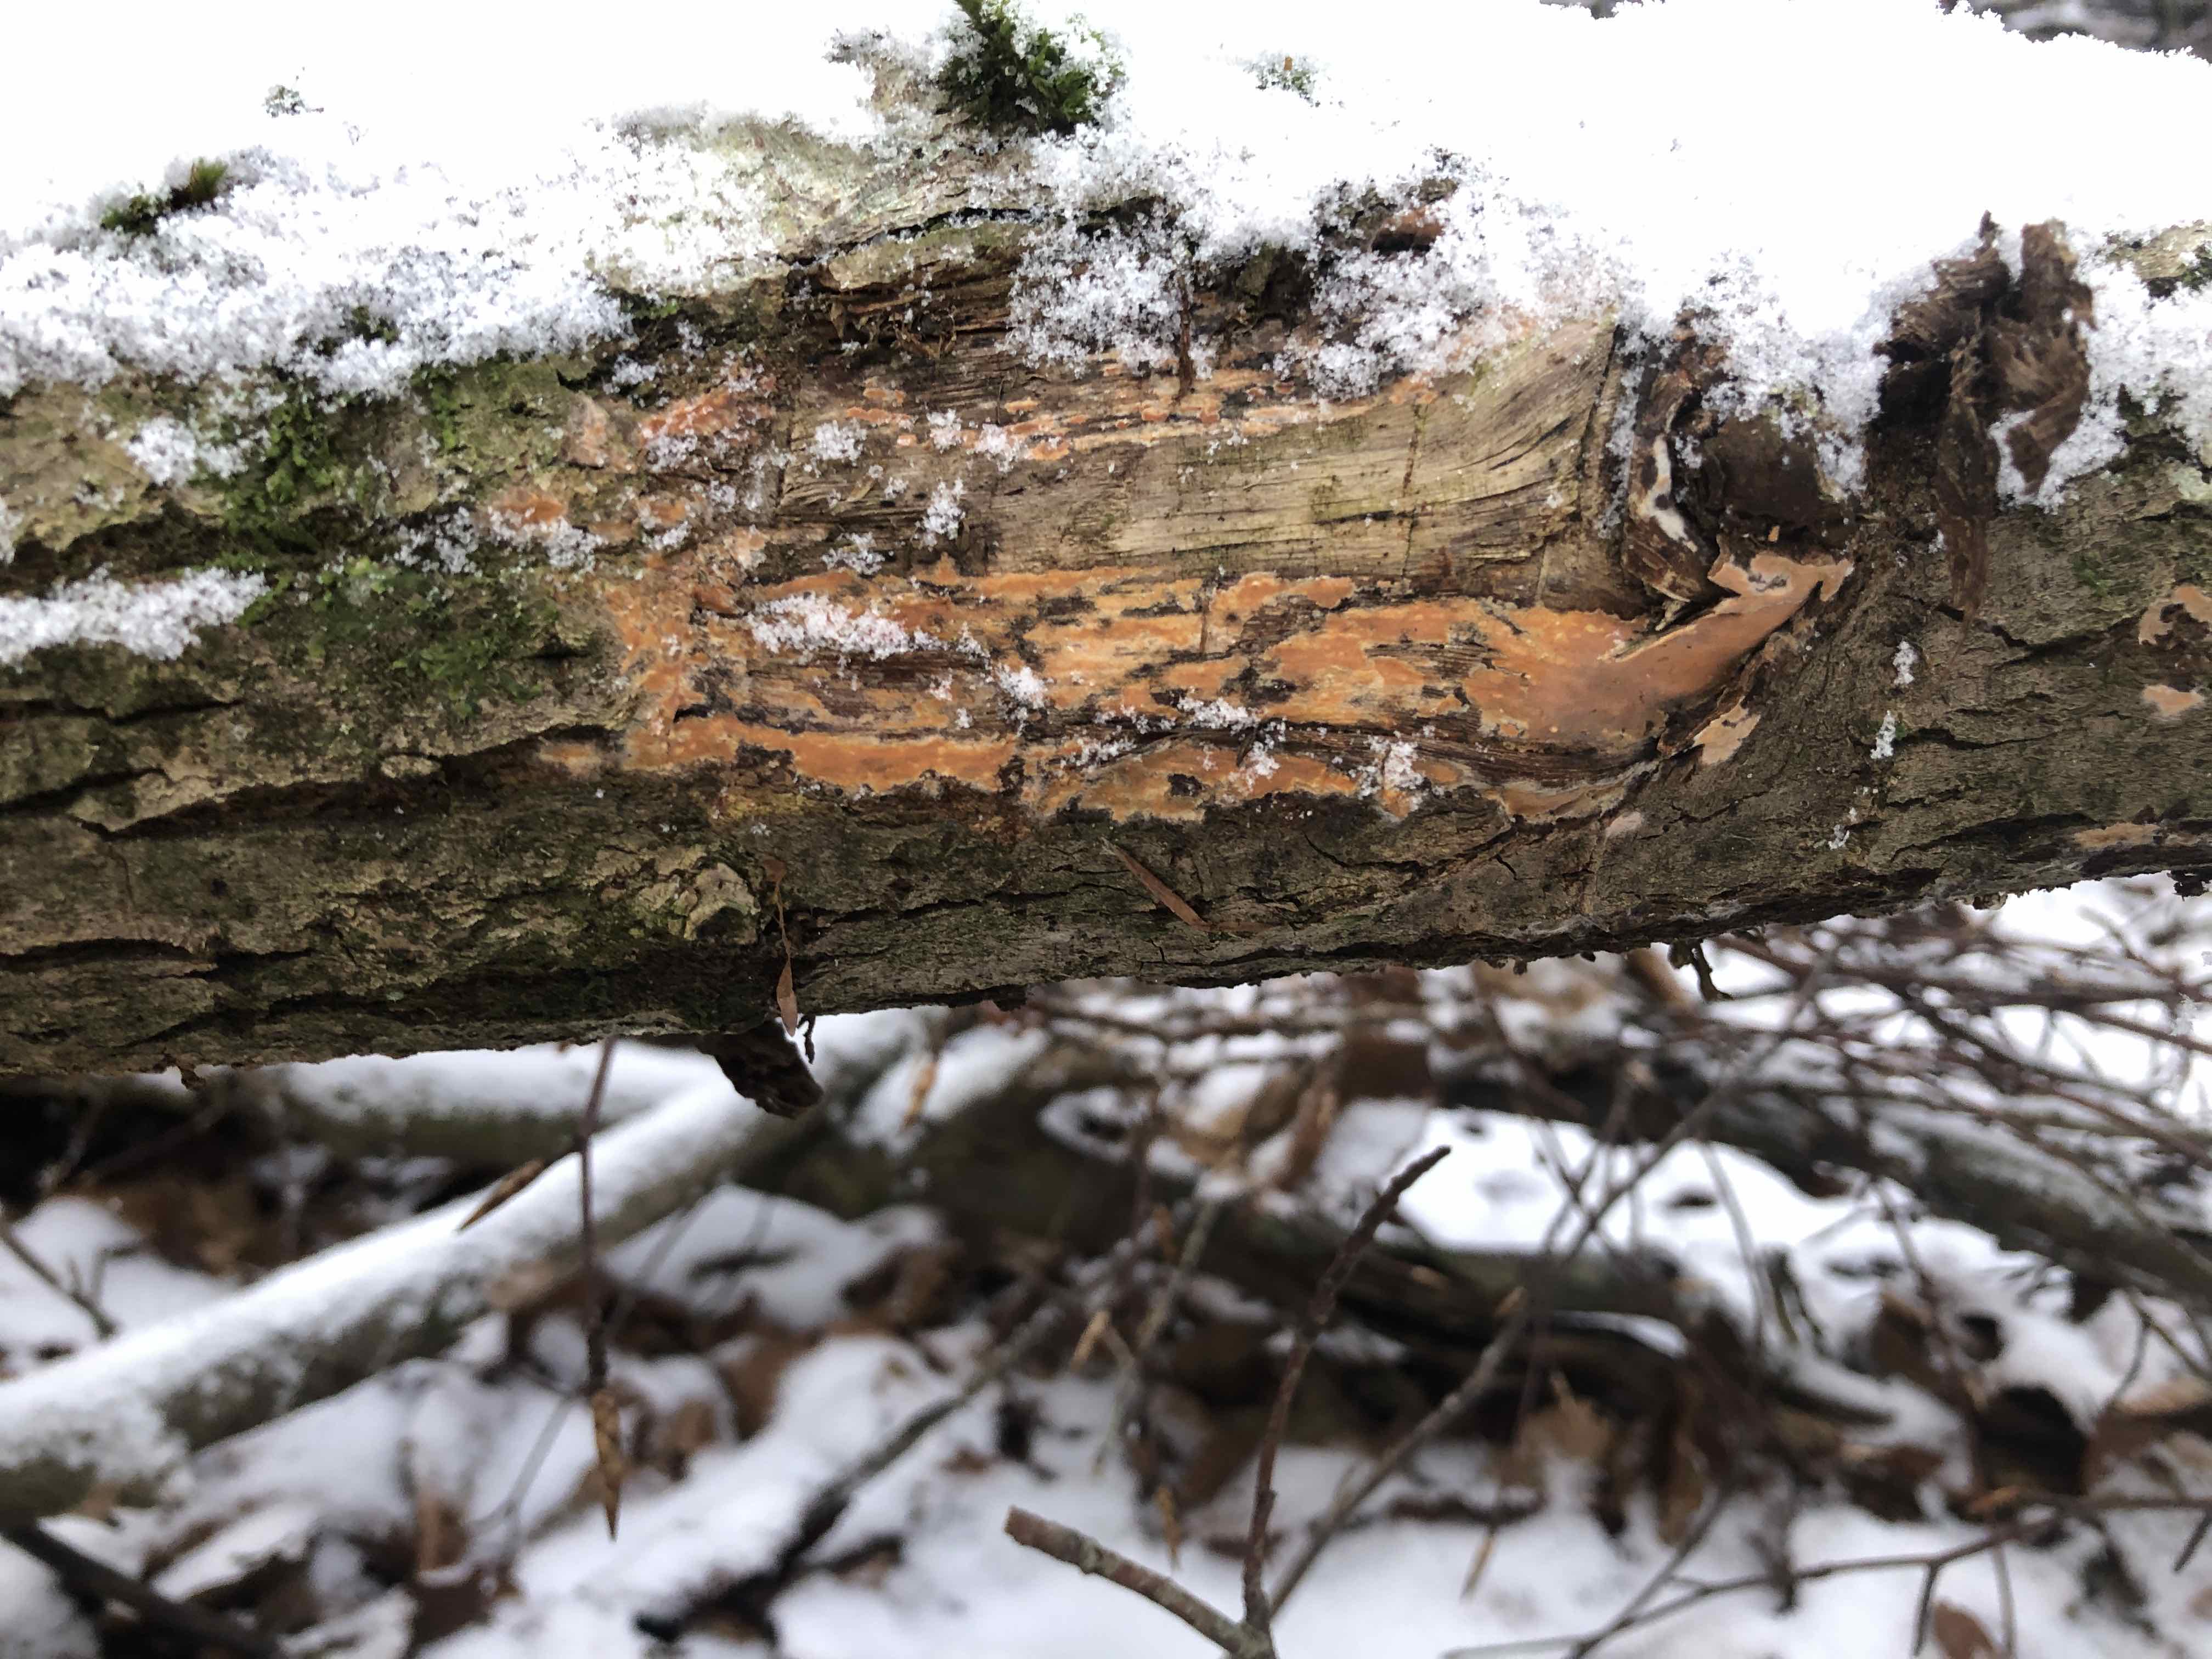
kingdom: Fungi
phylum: Basidiomycota
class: Agaricomycetes
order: Russulales
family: Peniophoraceae
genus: Peniophora
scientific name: Peniophora incarnata
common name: laksefarvet voksskind
